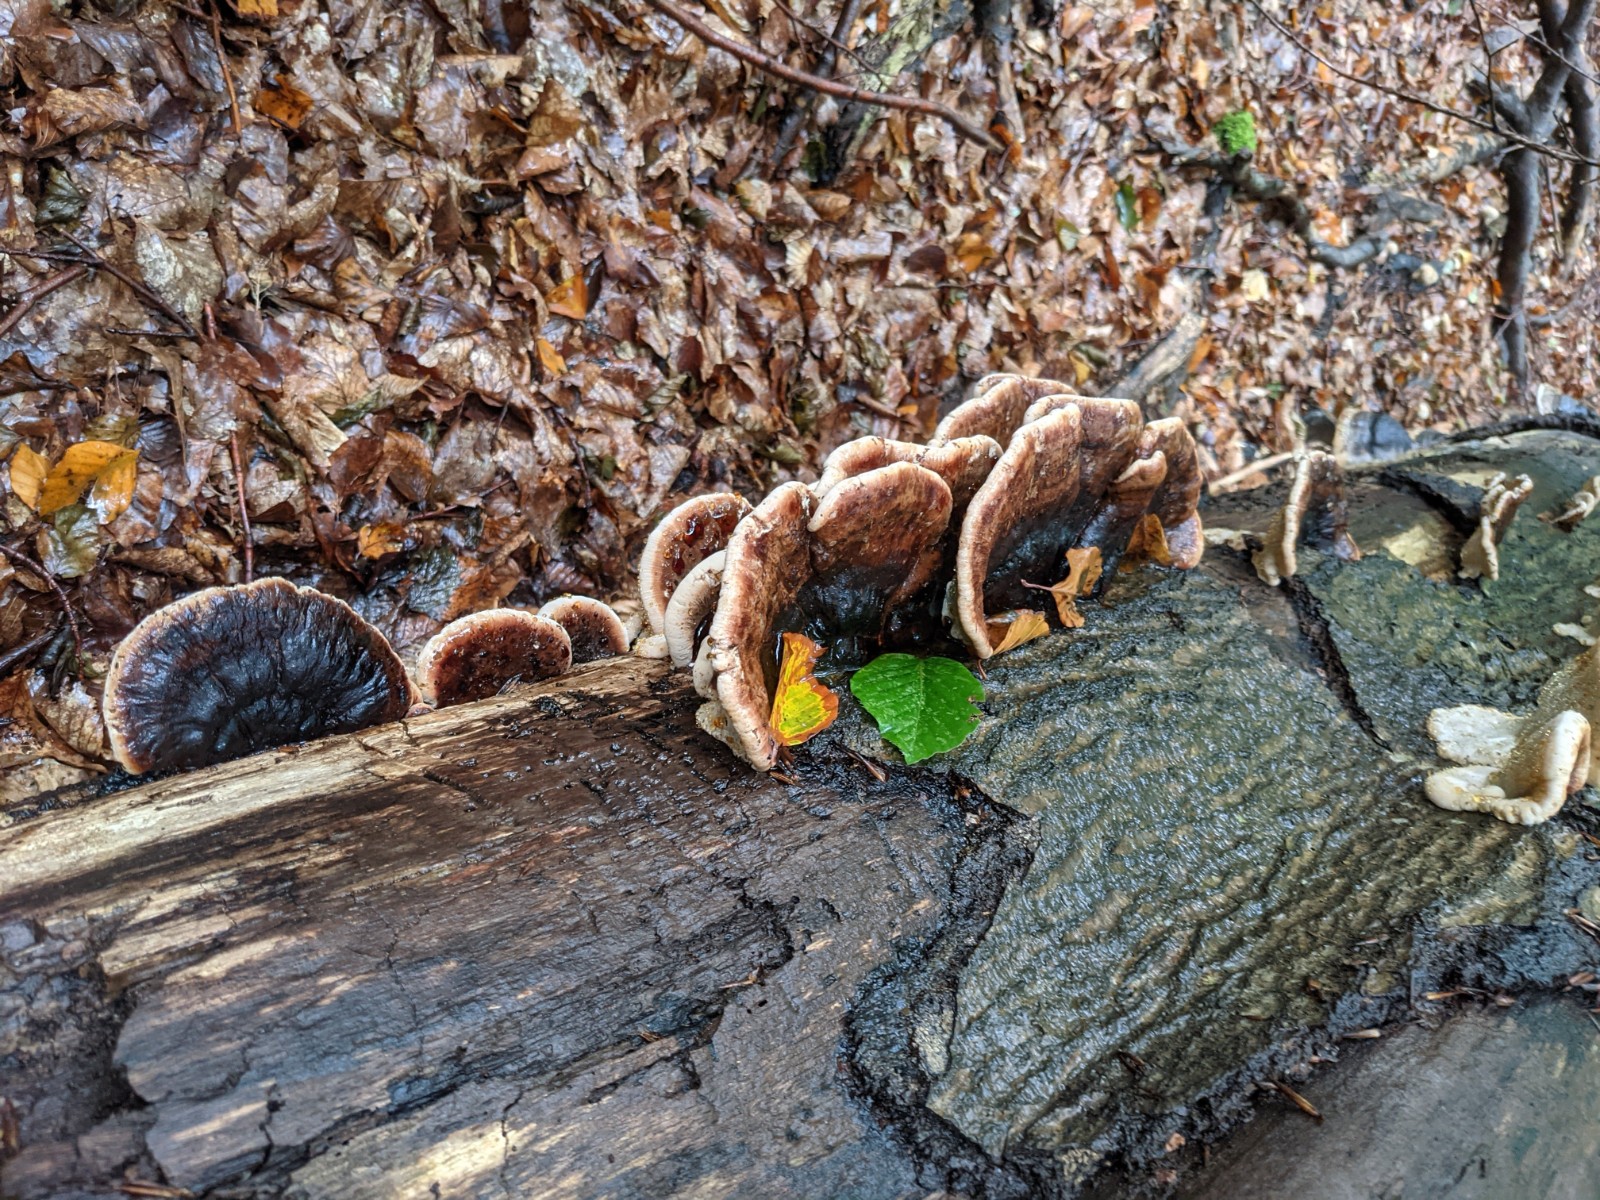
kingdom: Fungi
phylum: Basidiomycota
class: Agaricomycetes
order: Polyporales
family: Ischnodermataceae
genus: Ischnoderma
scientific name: Ischnoderma resinosum
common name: løv-tjæreporesvamp
